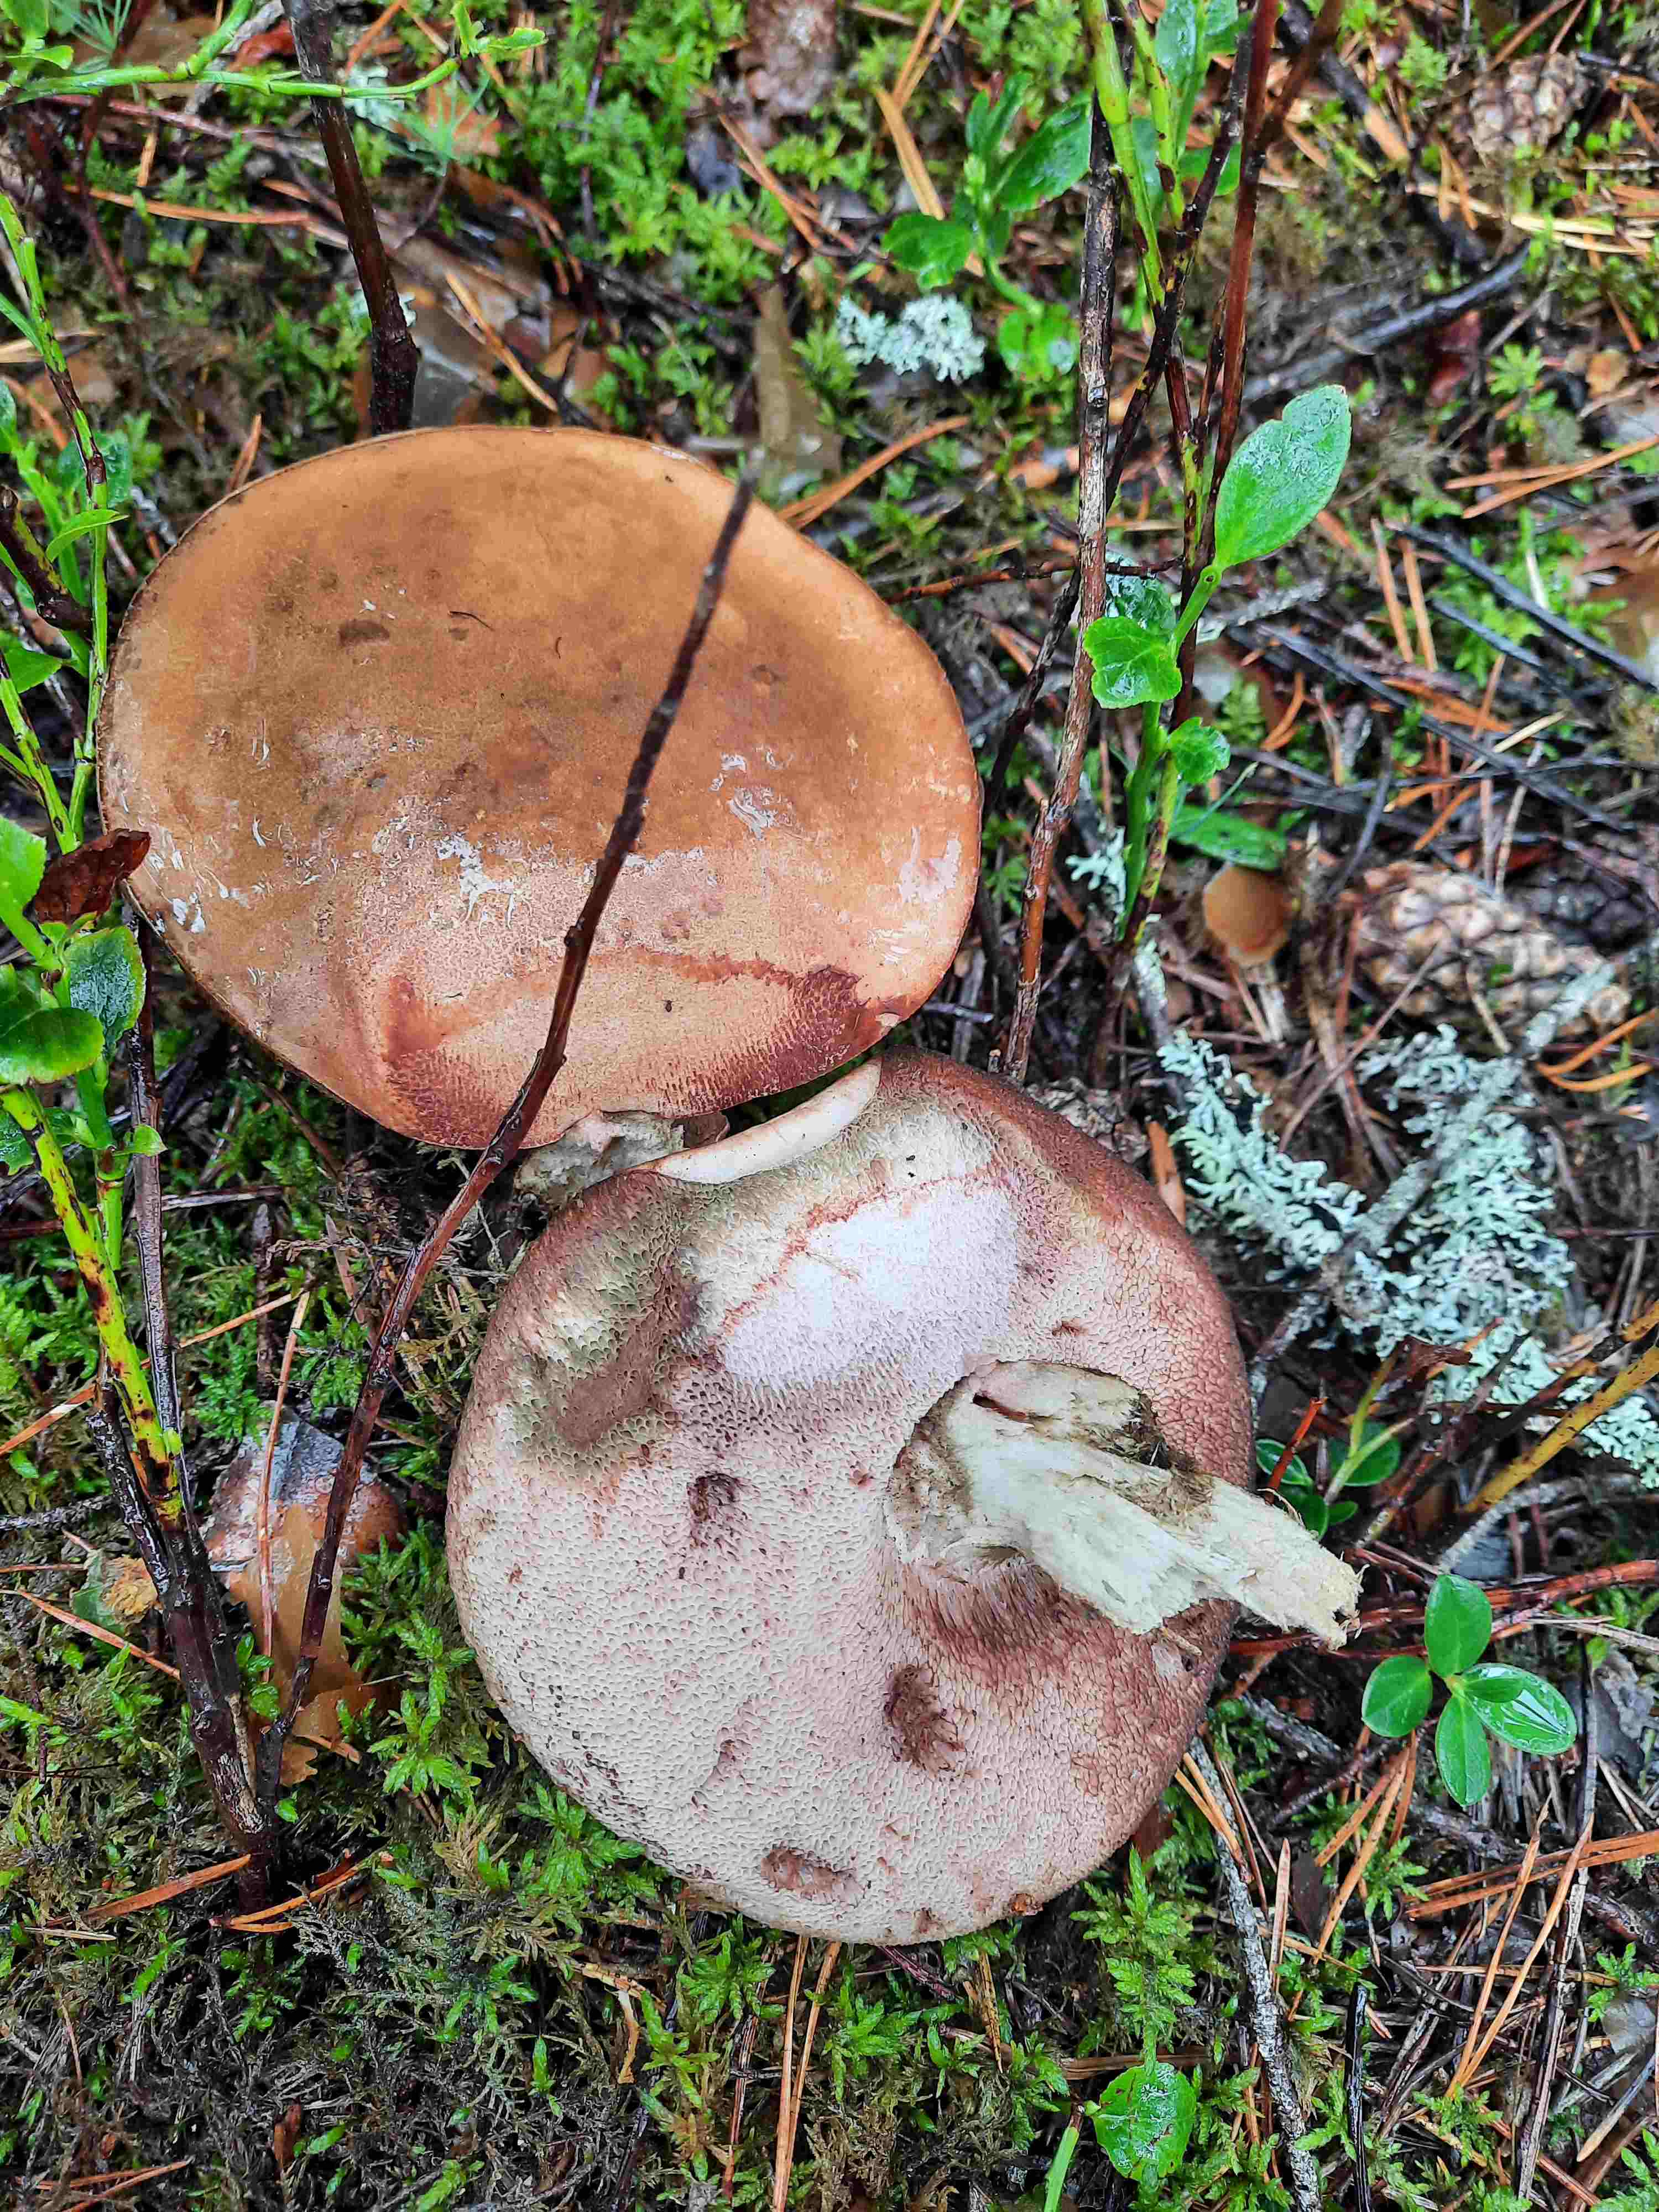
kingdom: Fungi
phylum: Basidiomycota
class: Agaricomycetes
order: Boletales
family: Boletaceae
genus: Tylopilus
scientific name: Tylopilus felleus
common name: galderørhat
